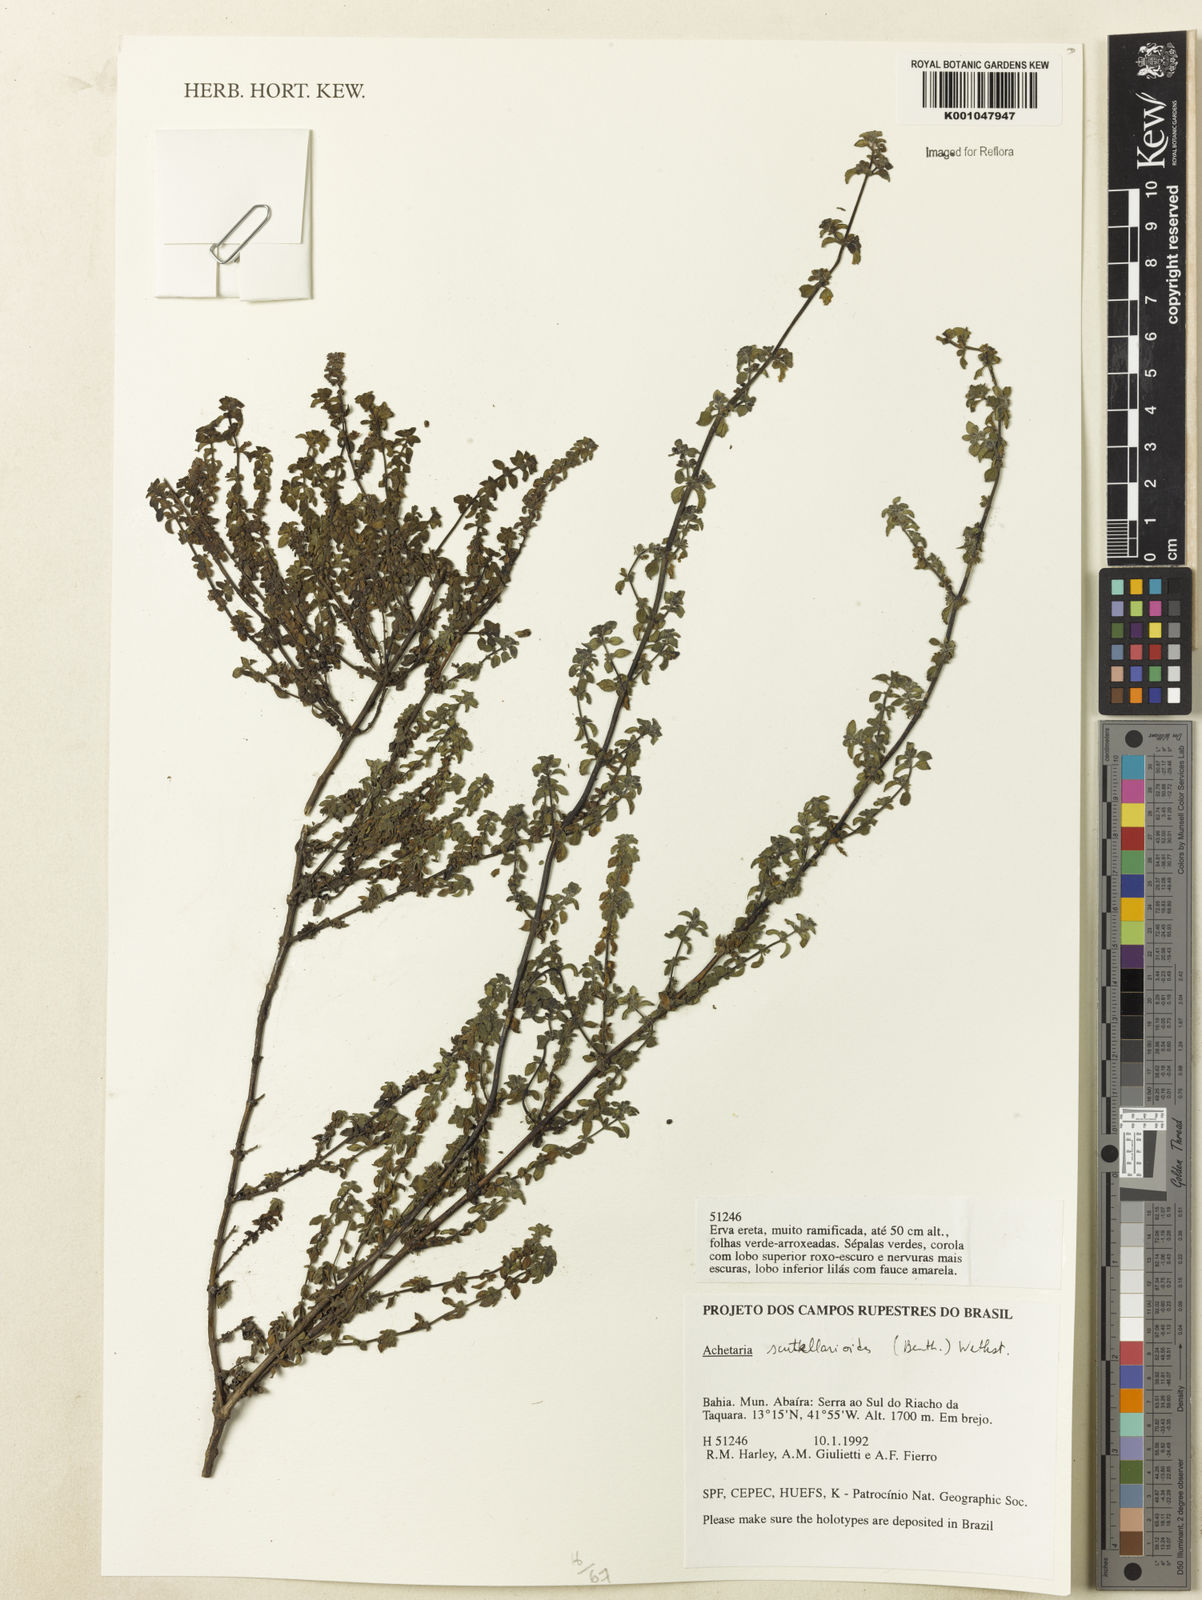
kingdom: Plantae
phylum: Tracheophyta
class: Magnoliopsida
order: Lamiales
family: Plantaginaceae
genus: Matourea
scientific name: Matourea scutellarioides
